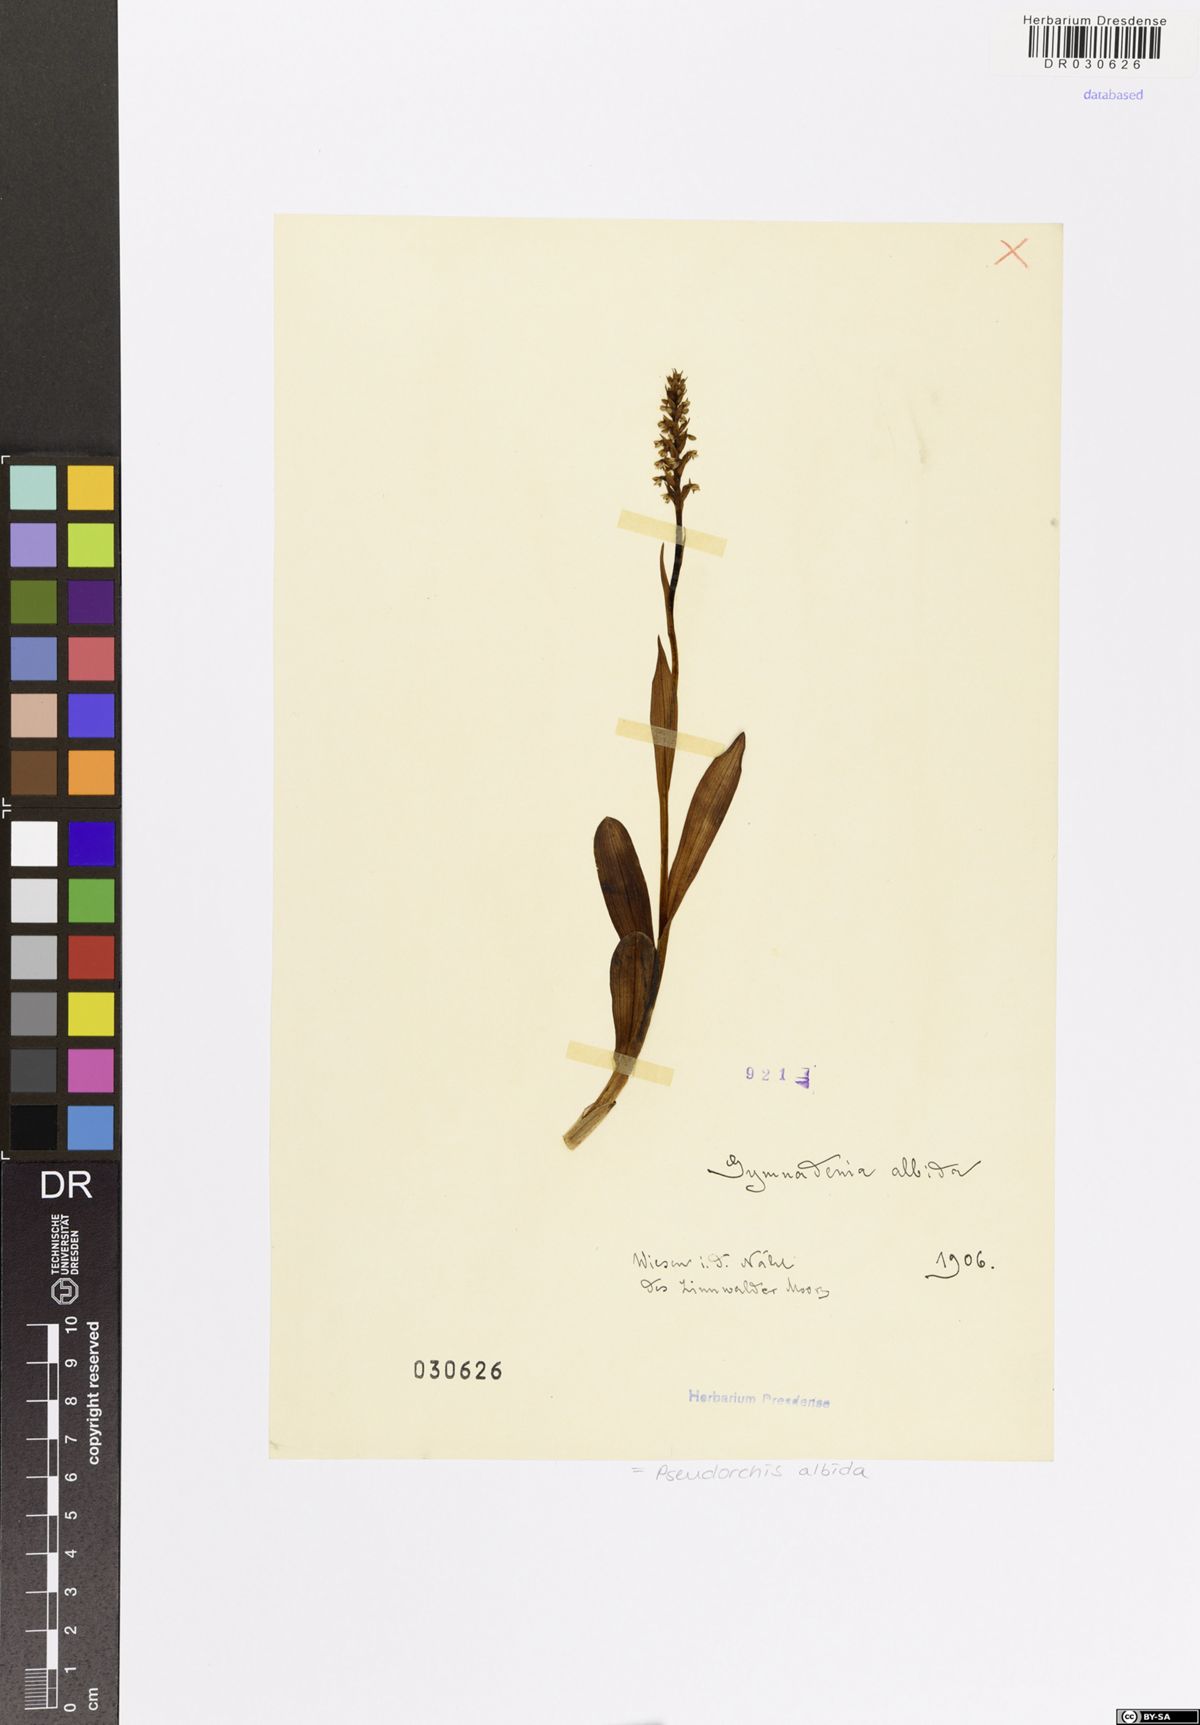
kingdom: Plantae
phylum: Tracheophyta
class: Liliopsida
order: Asparagales
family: Orchidaceae
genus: Pseudorchis
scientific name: Pseudorchis albida
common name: Small-white orchid
